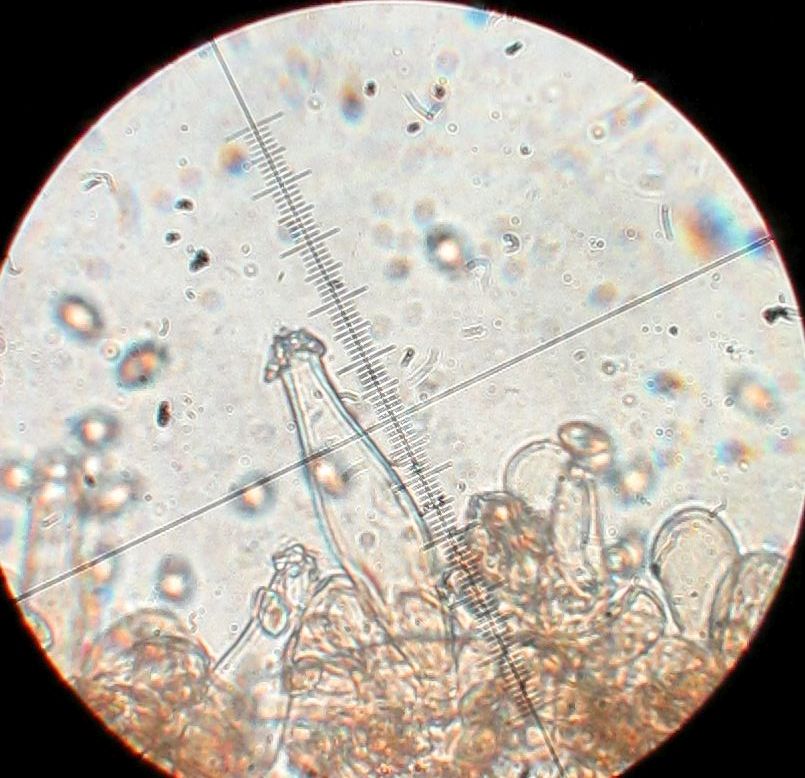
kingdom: Fungi
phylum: Basidiomycota
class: Agaricomycetes
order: Agaricales
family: Inocybaceae
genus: Inocybe
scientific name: Inocybe
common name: trævlhat
